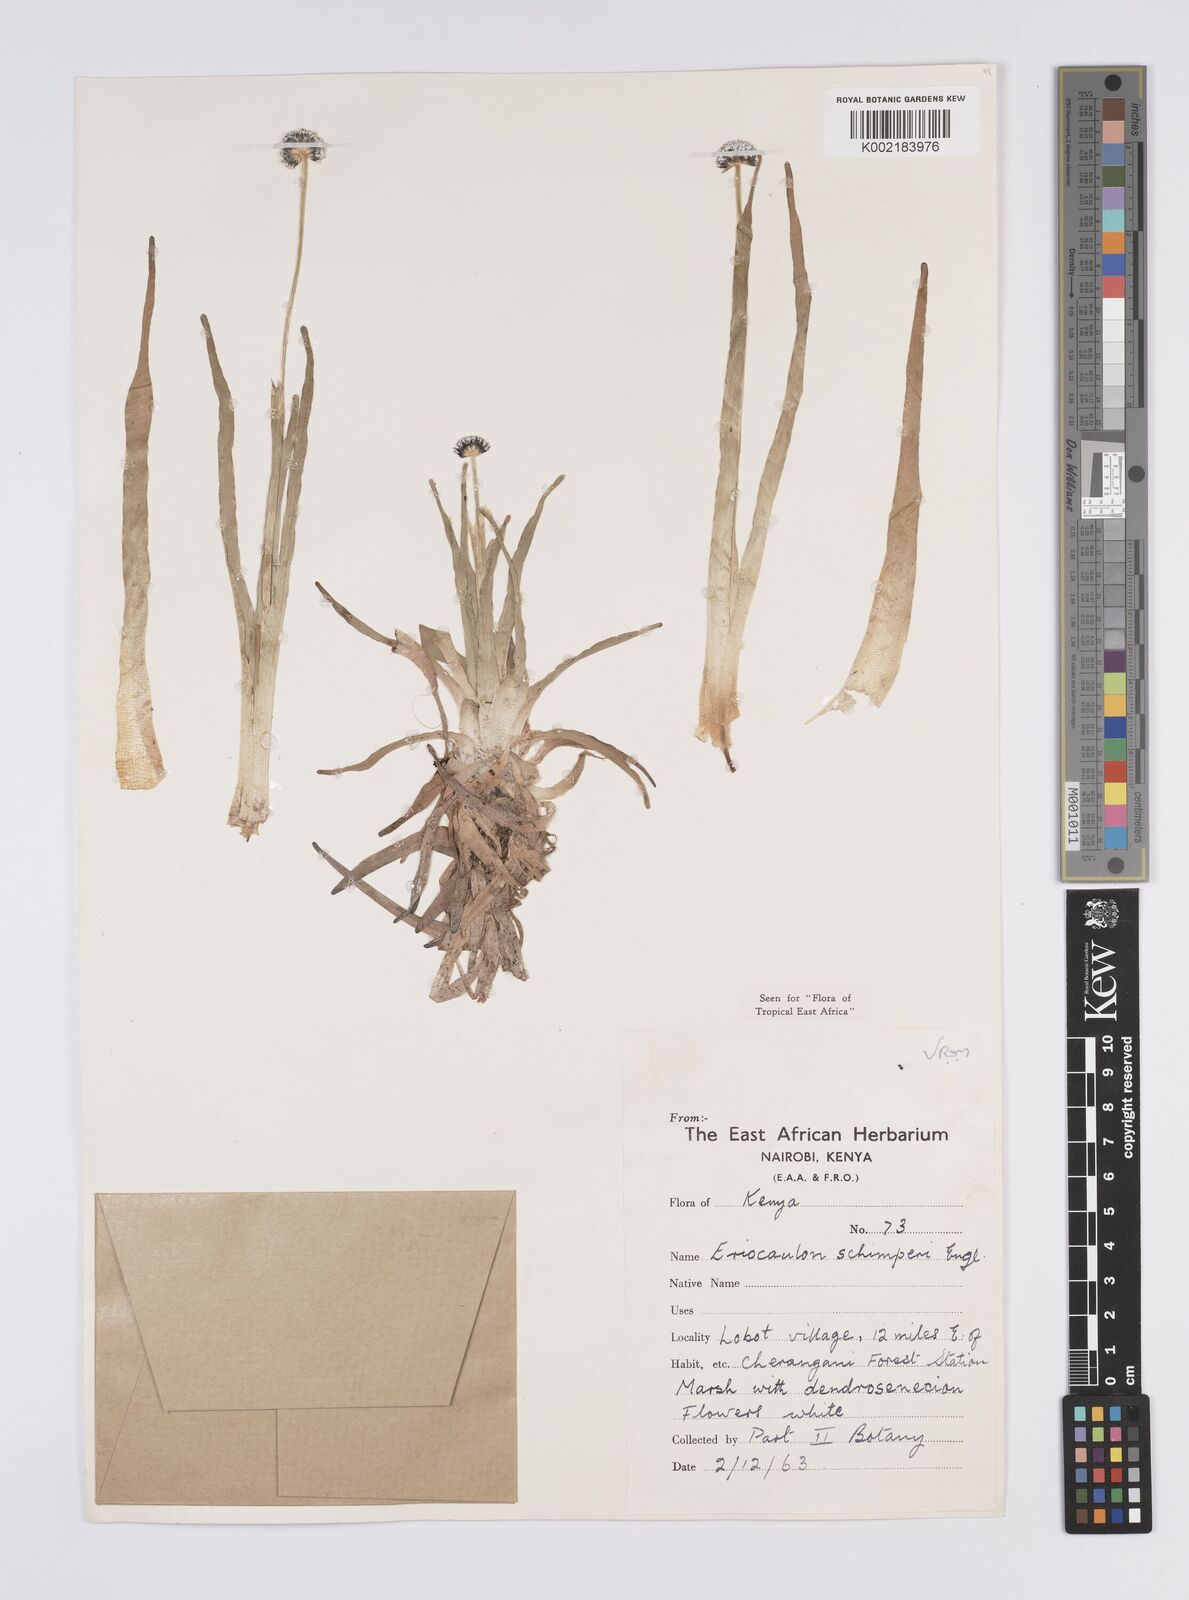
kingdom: Plantae
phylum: Tracheophyta
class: Liliopsida
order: Poales
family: Eriocaulaceae
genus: Eriocaulon
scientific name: Eriocaulon schimperi
